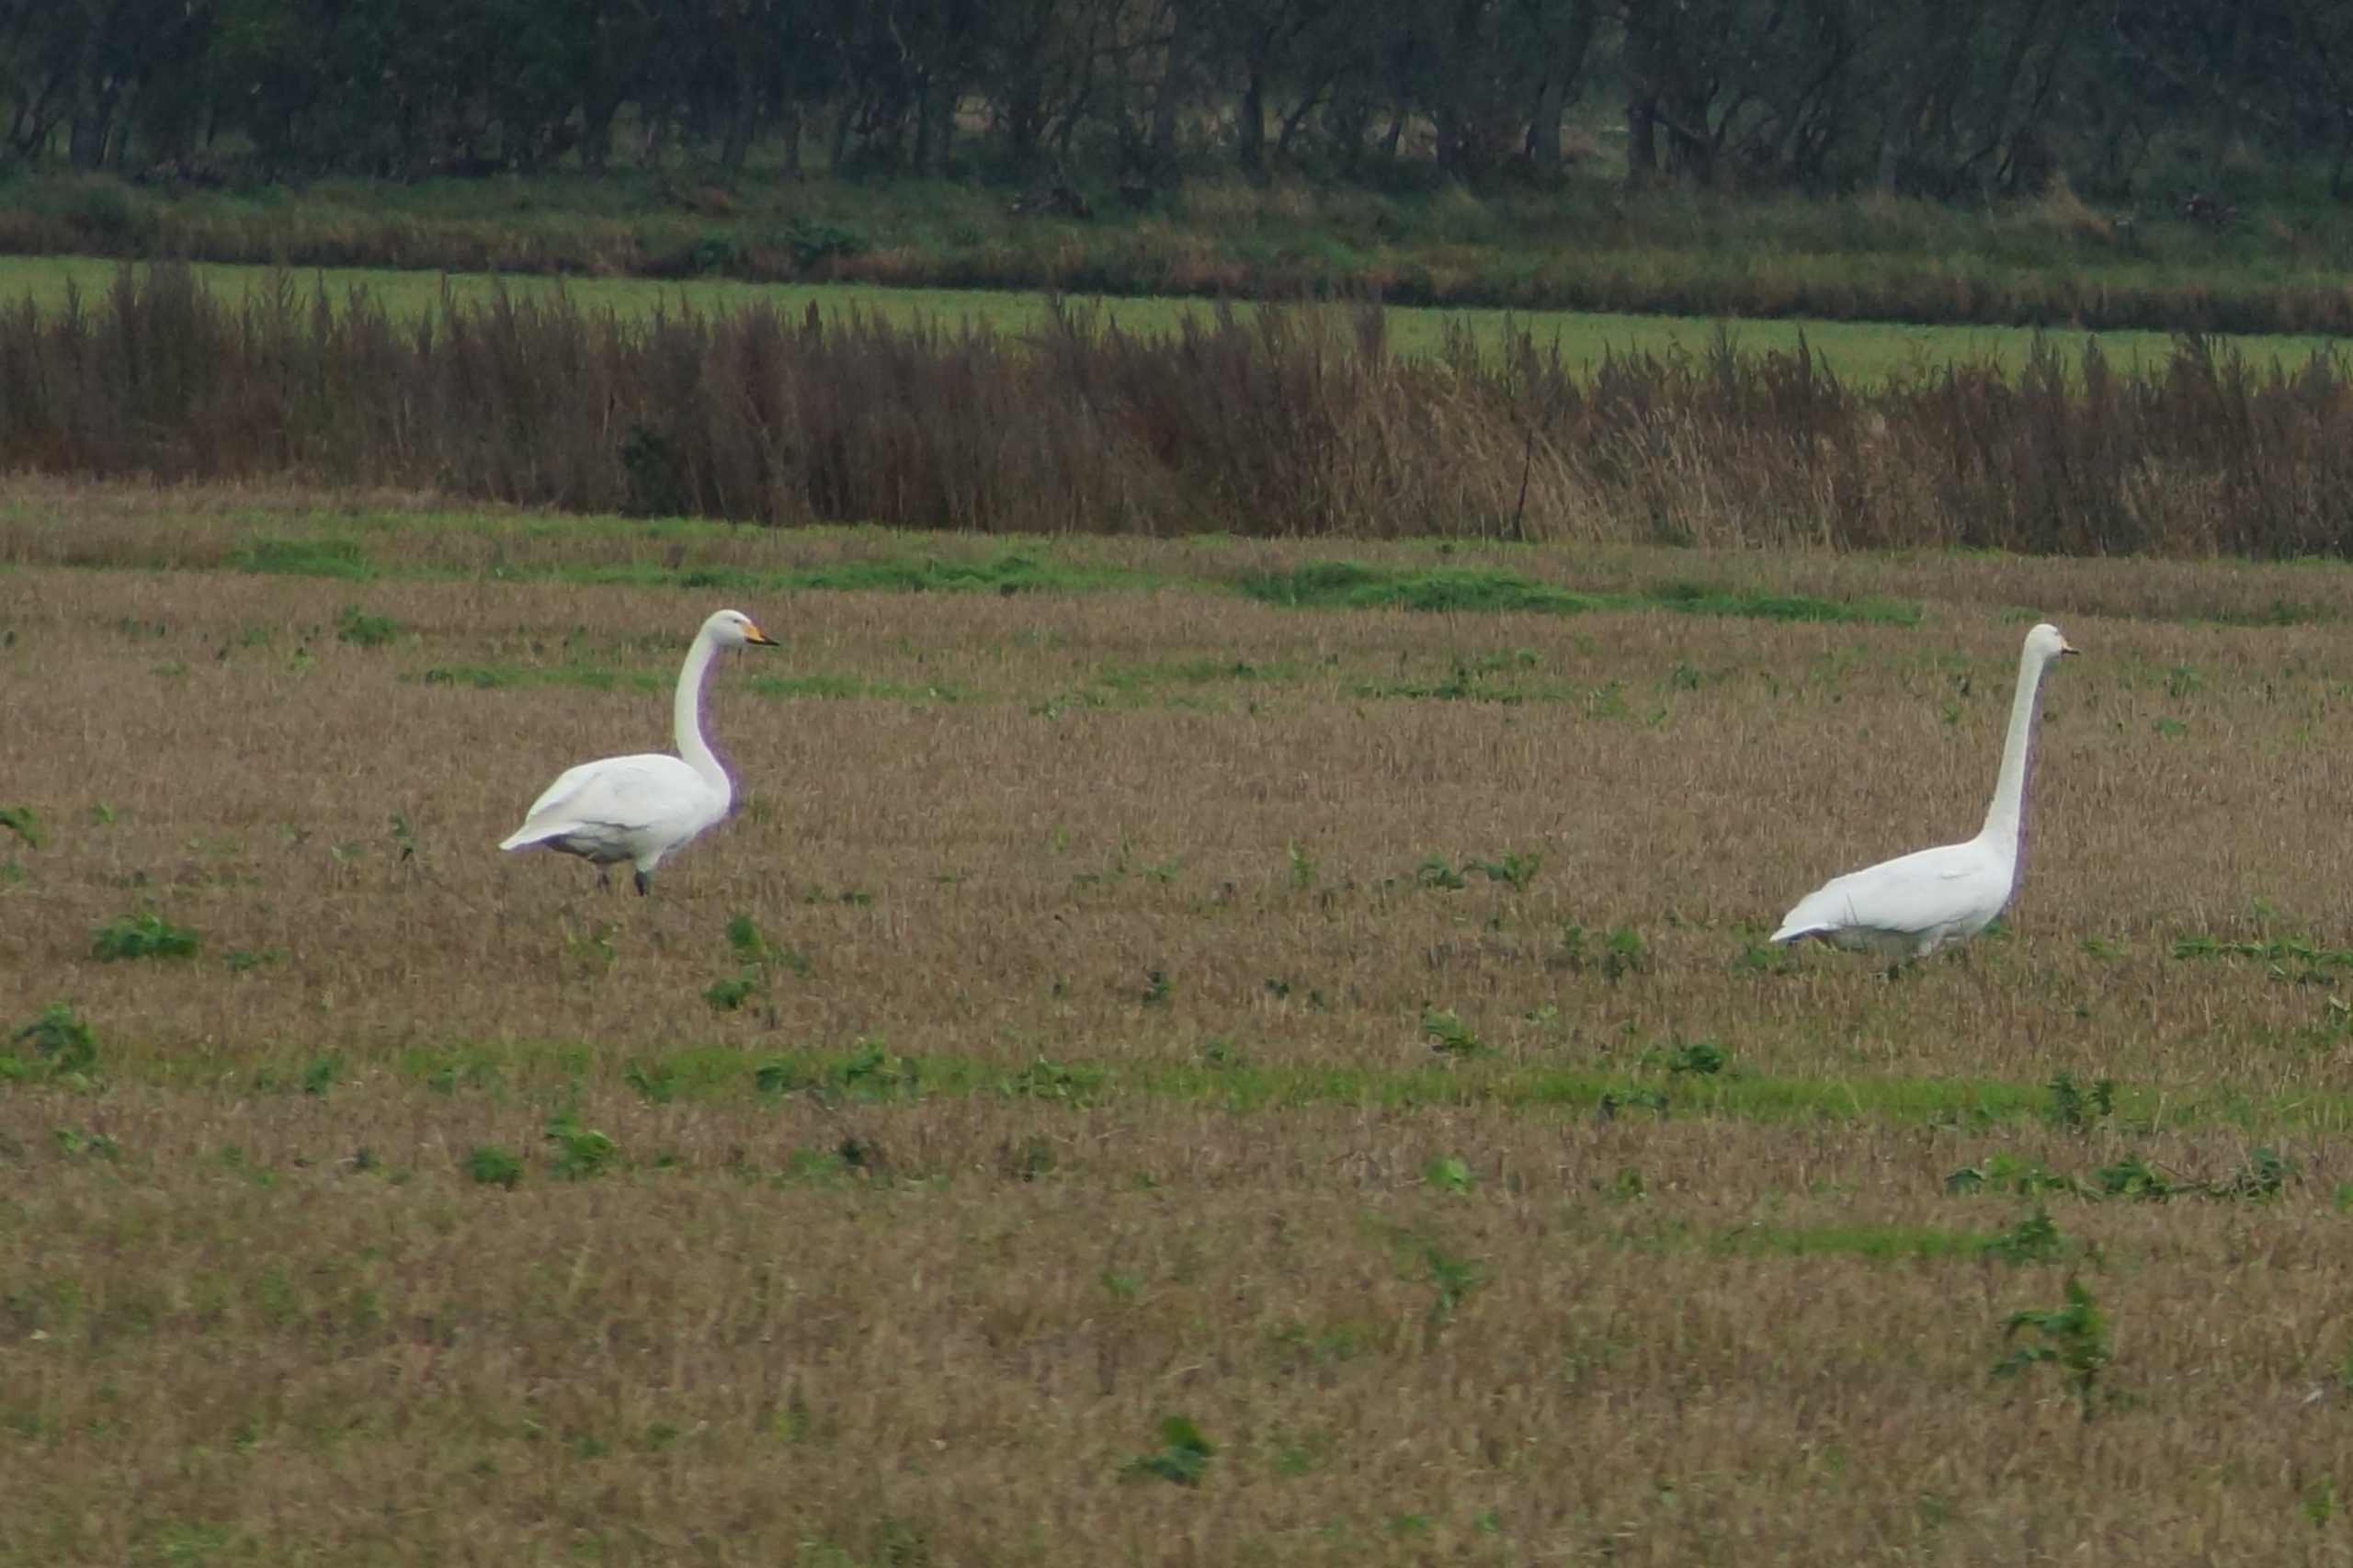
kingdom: Animalia
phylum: Chordata
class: Aves
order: Anseriformes
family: Anatidae
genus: Cygnus
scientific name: Cygnus cygnus
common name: Sangsvane
